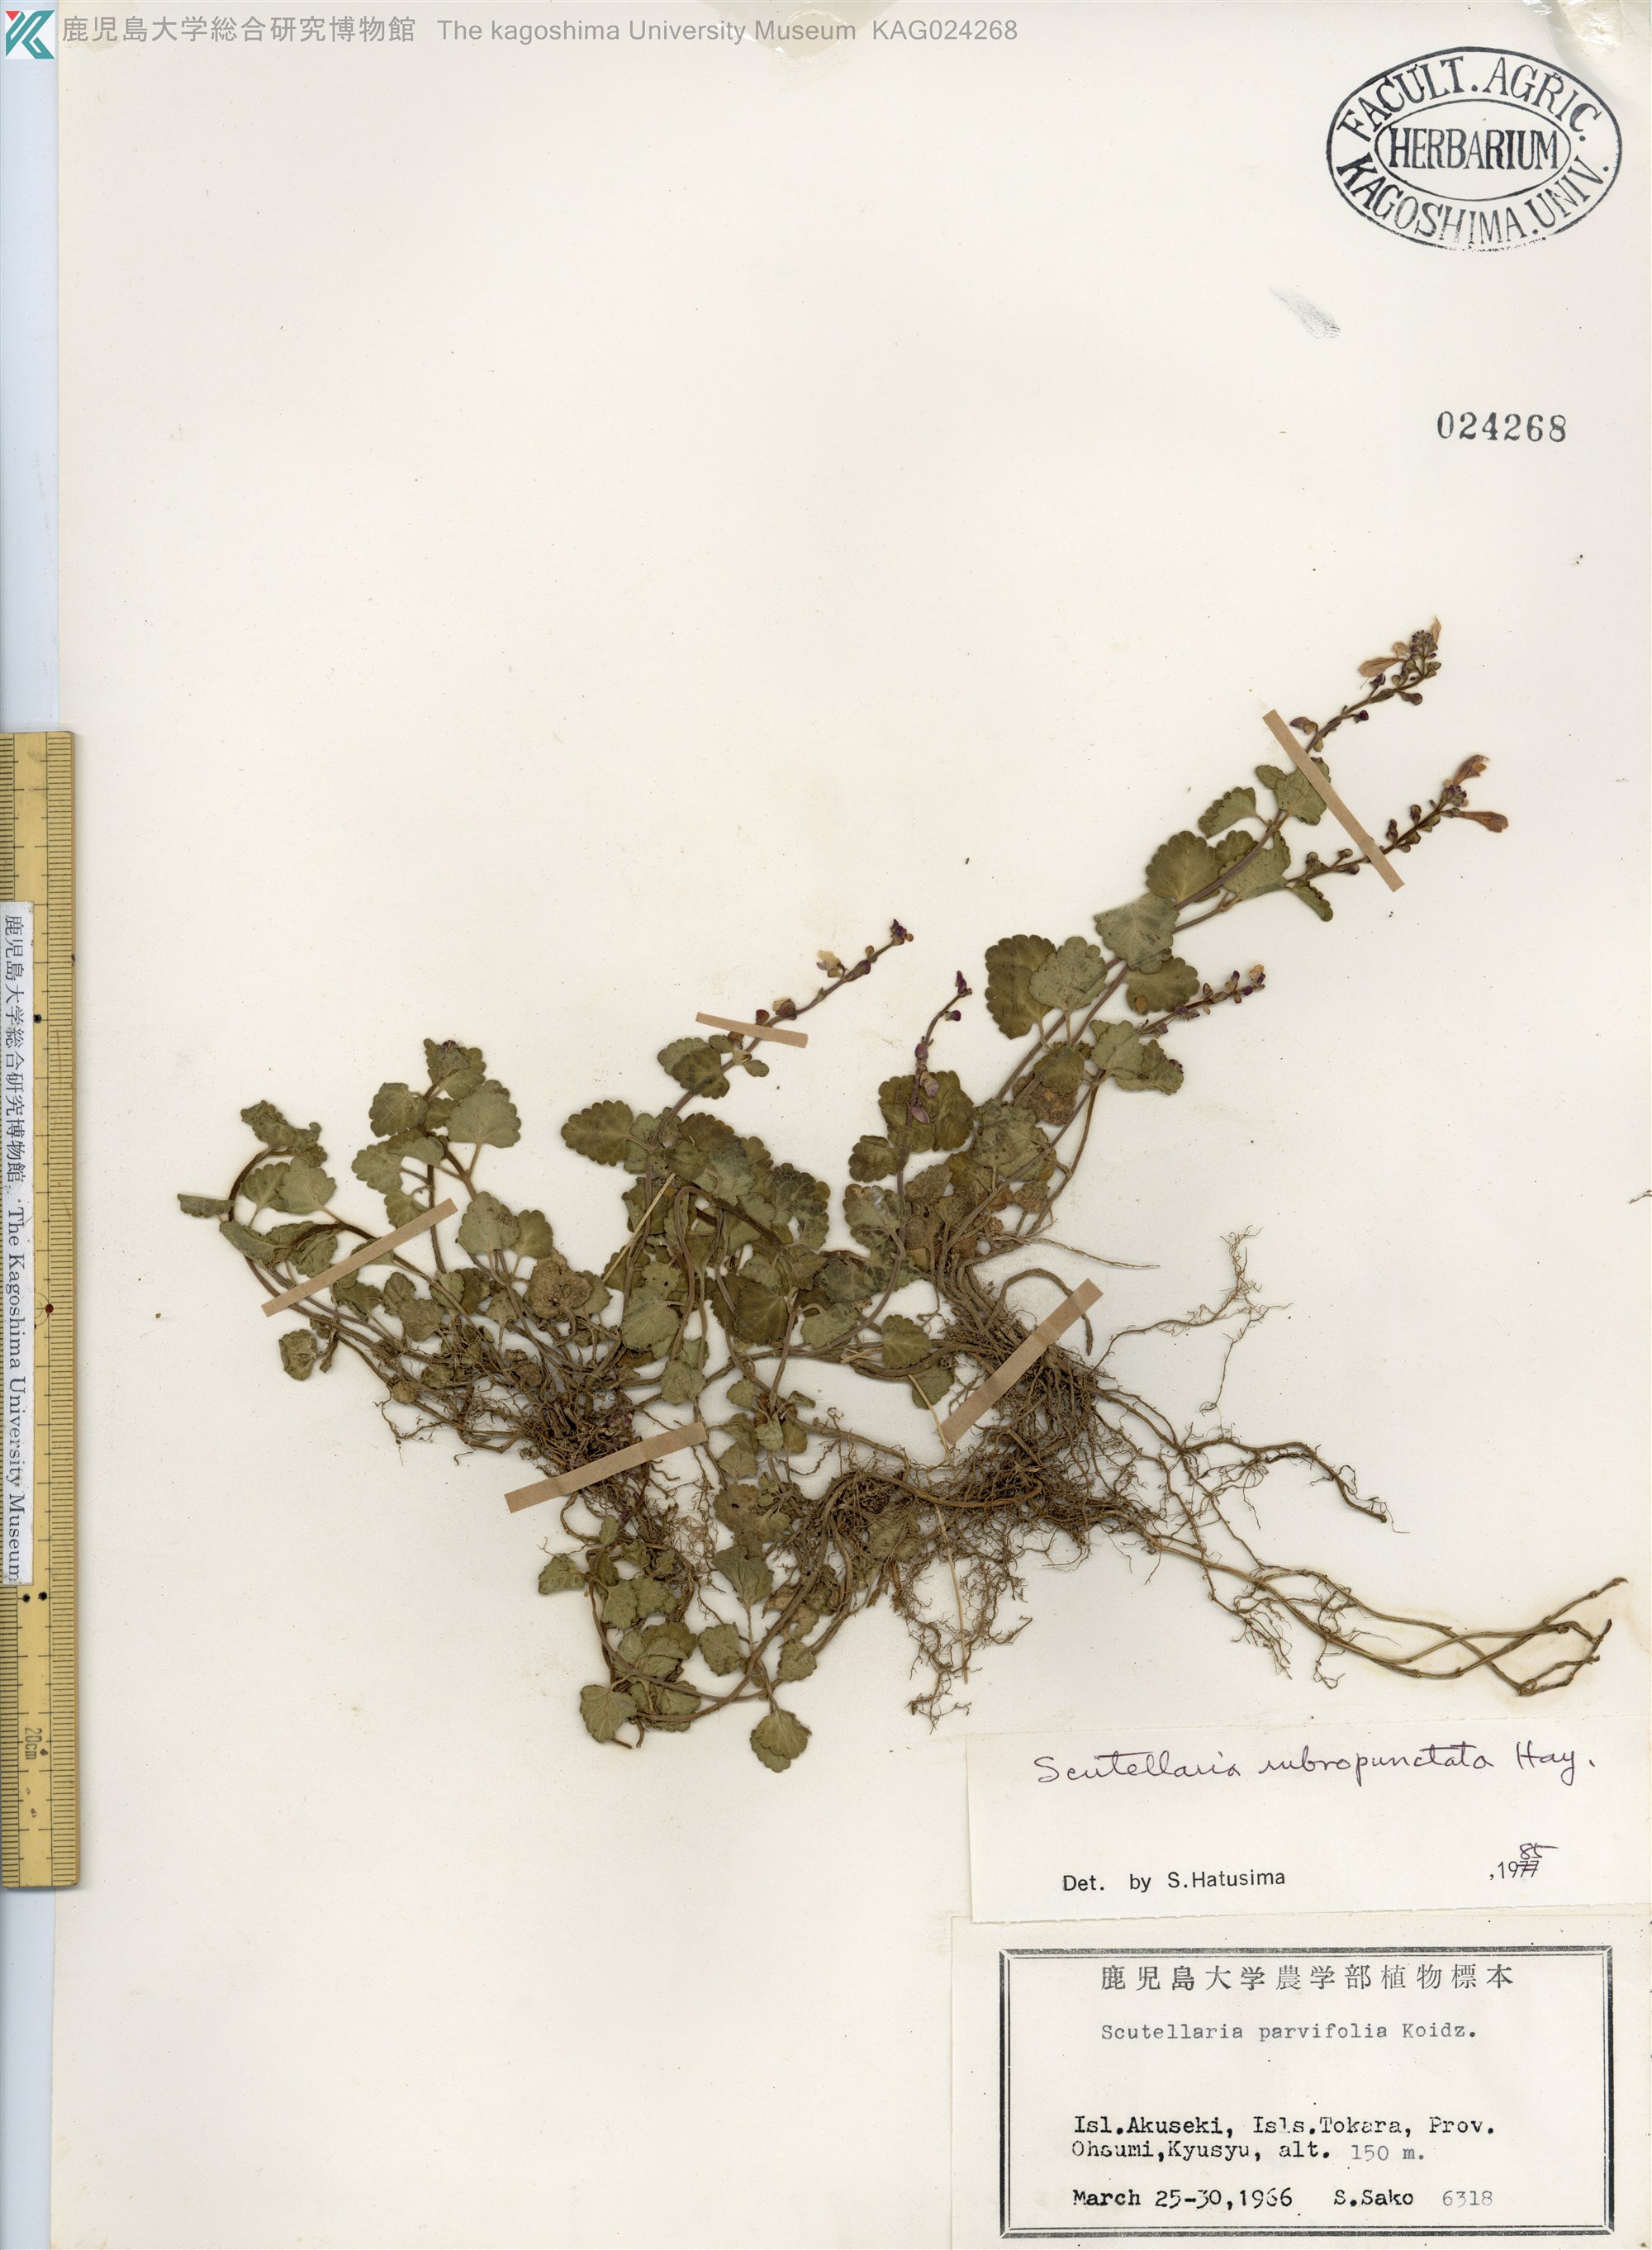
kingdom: Plantae
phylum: Tracheophyta
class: Magnoliopsida
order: Lamiales
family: Lamiaceae
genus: Scutellaria
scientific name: Scutellaria rubropunctata
